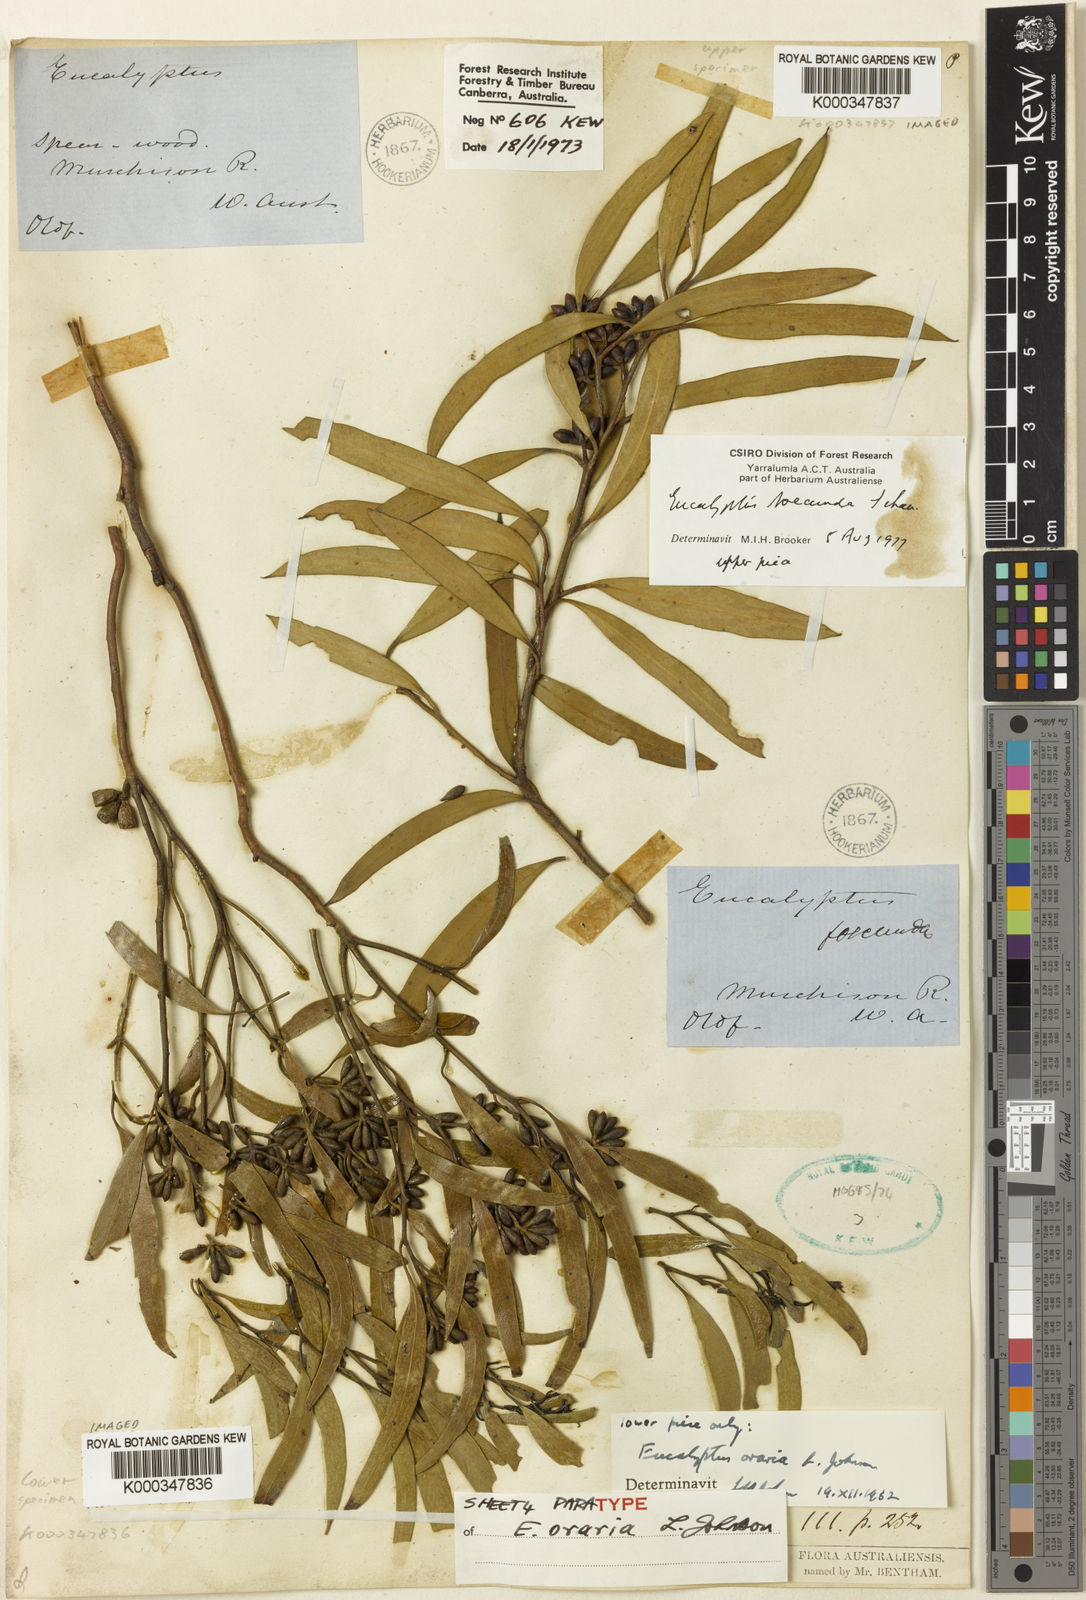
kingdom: Plantae
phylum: Tracheophyta
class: Magnoliopsida
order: Myrtales
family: Myrtaceae
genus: Eucalyptus
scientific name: Eucalyptus oraria
